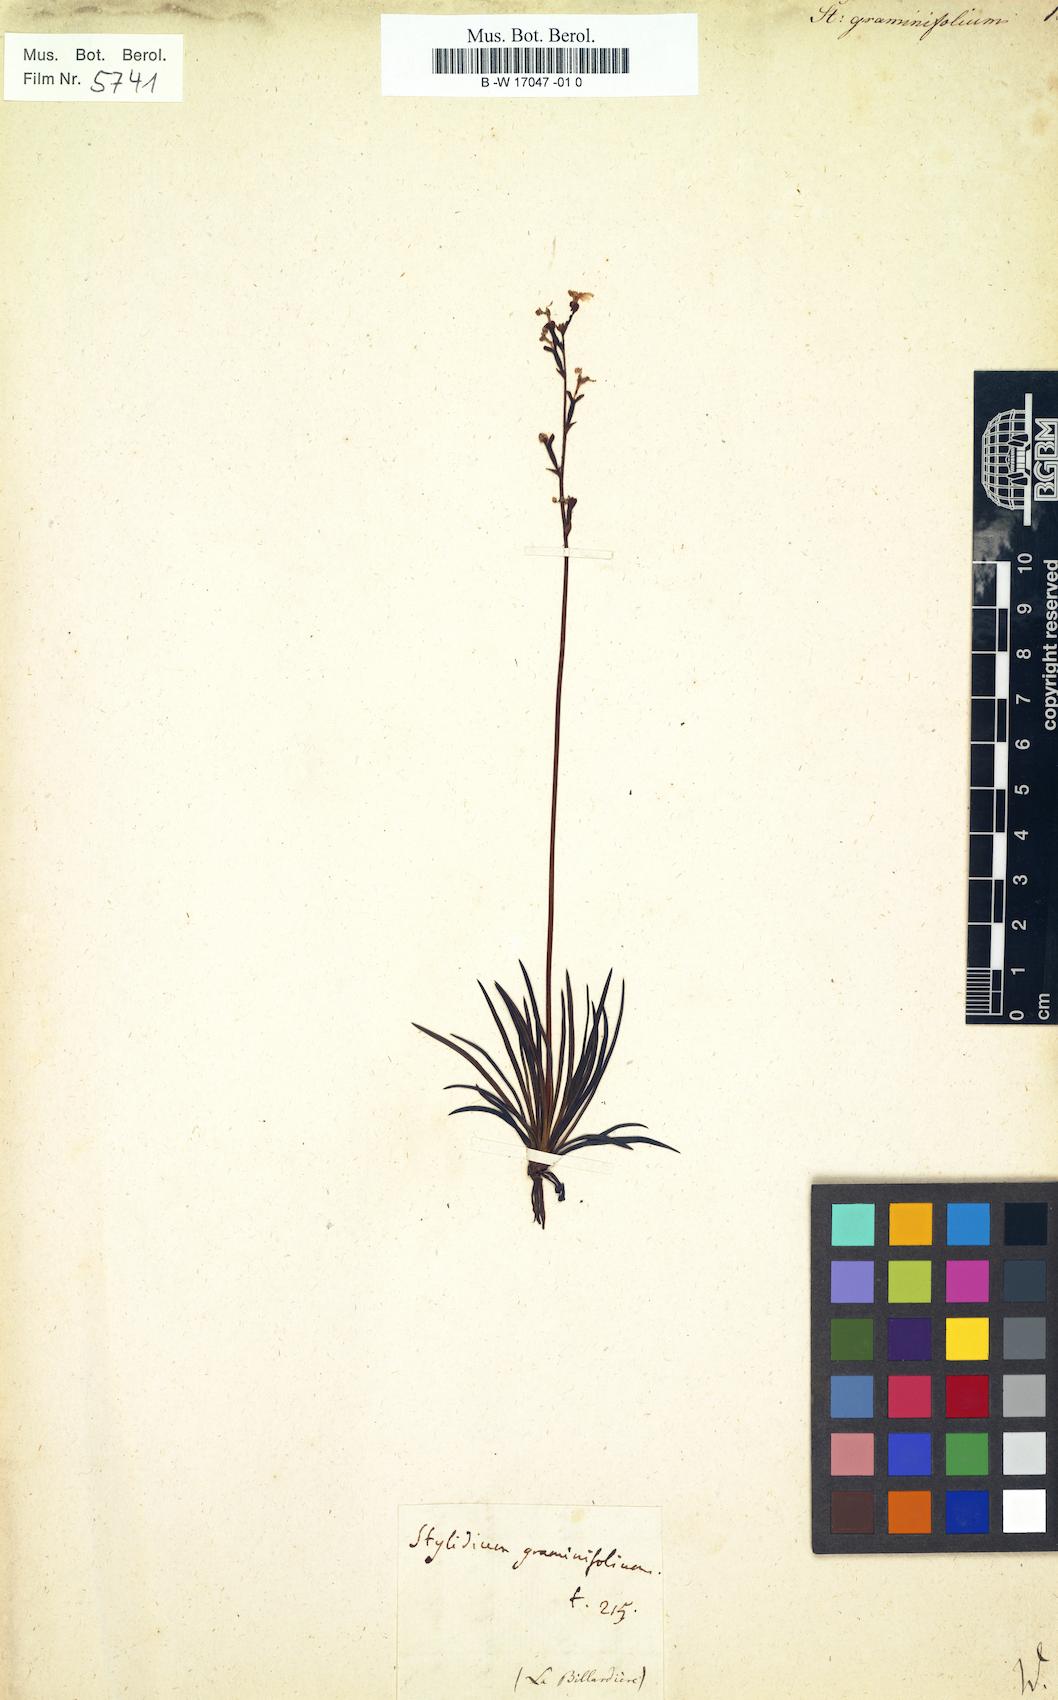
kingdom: Plantae
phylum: Tracheophyta
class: Magnoliopsida
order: Asterales
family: Stylidiaceae
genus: Stylidium
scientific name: Stylidium graminifolium
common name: Grass triggerplant
